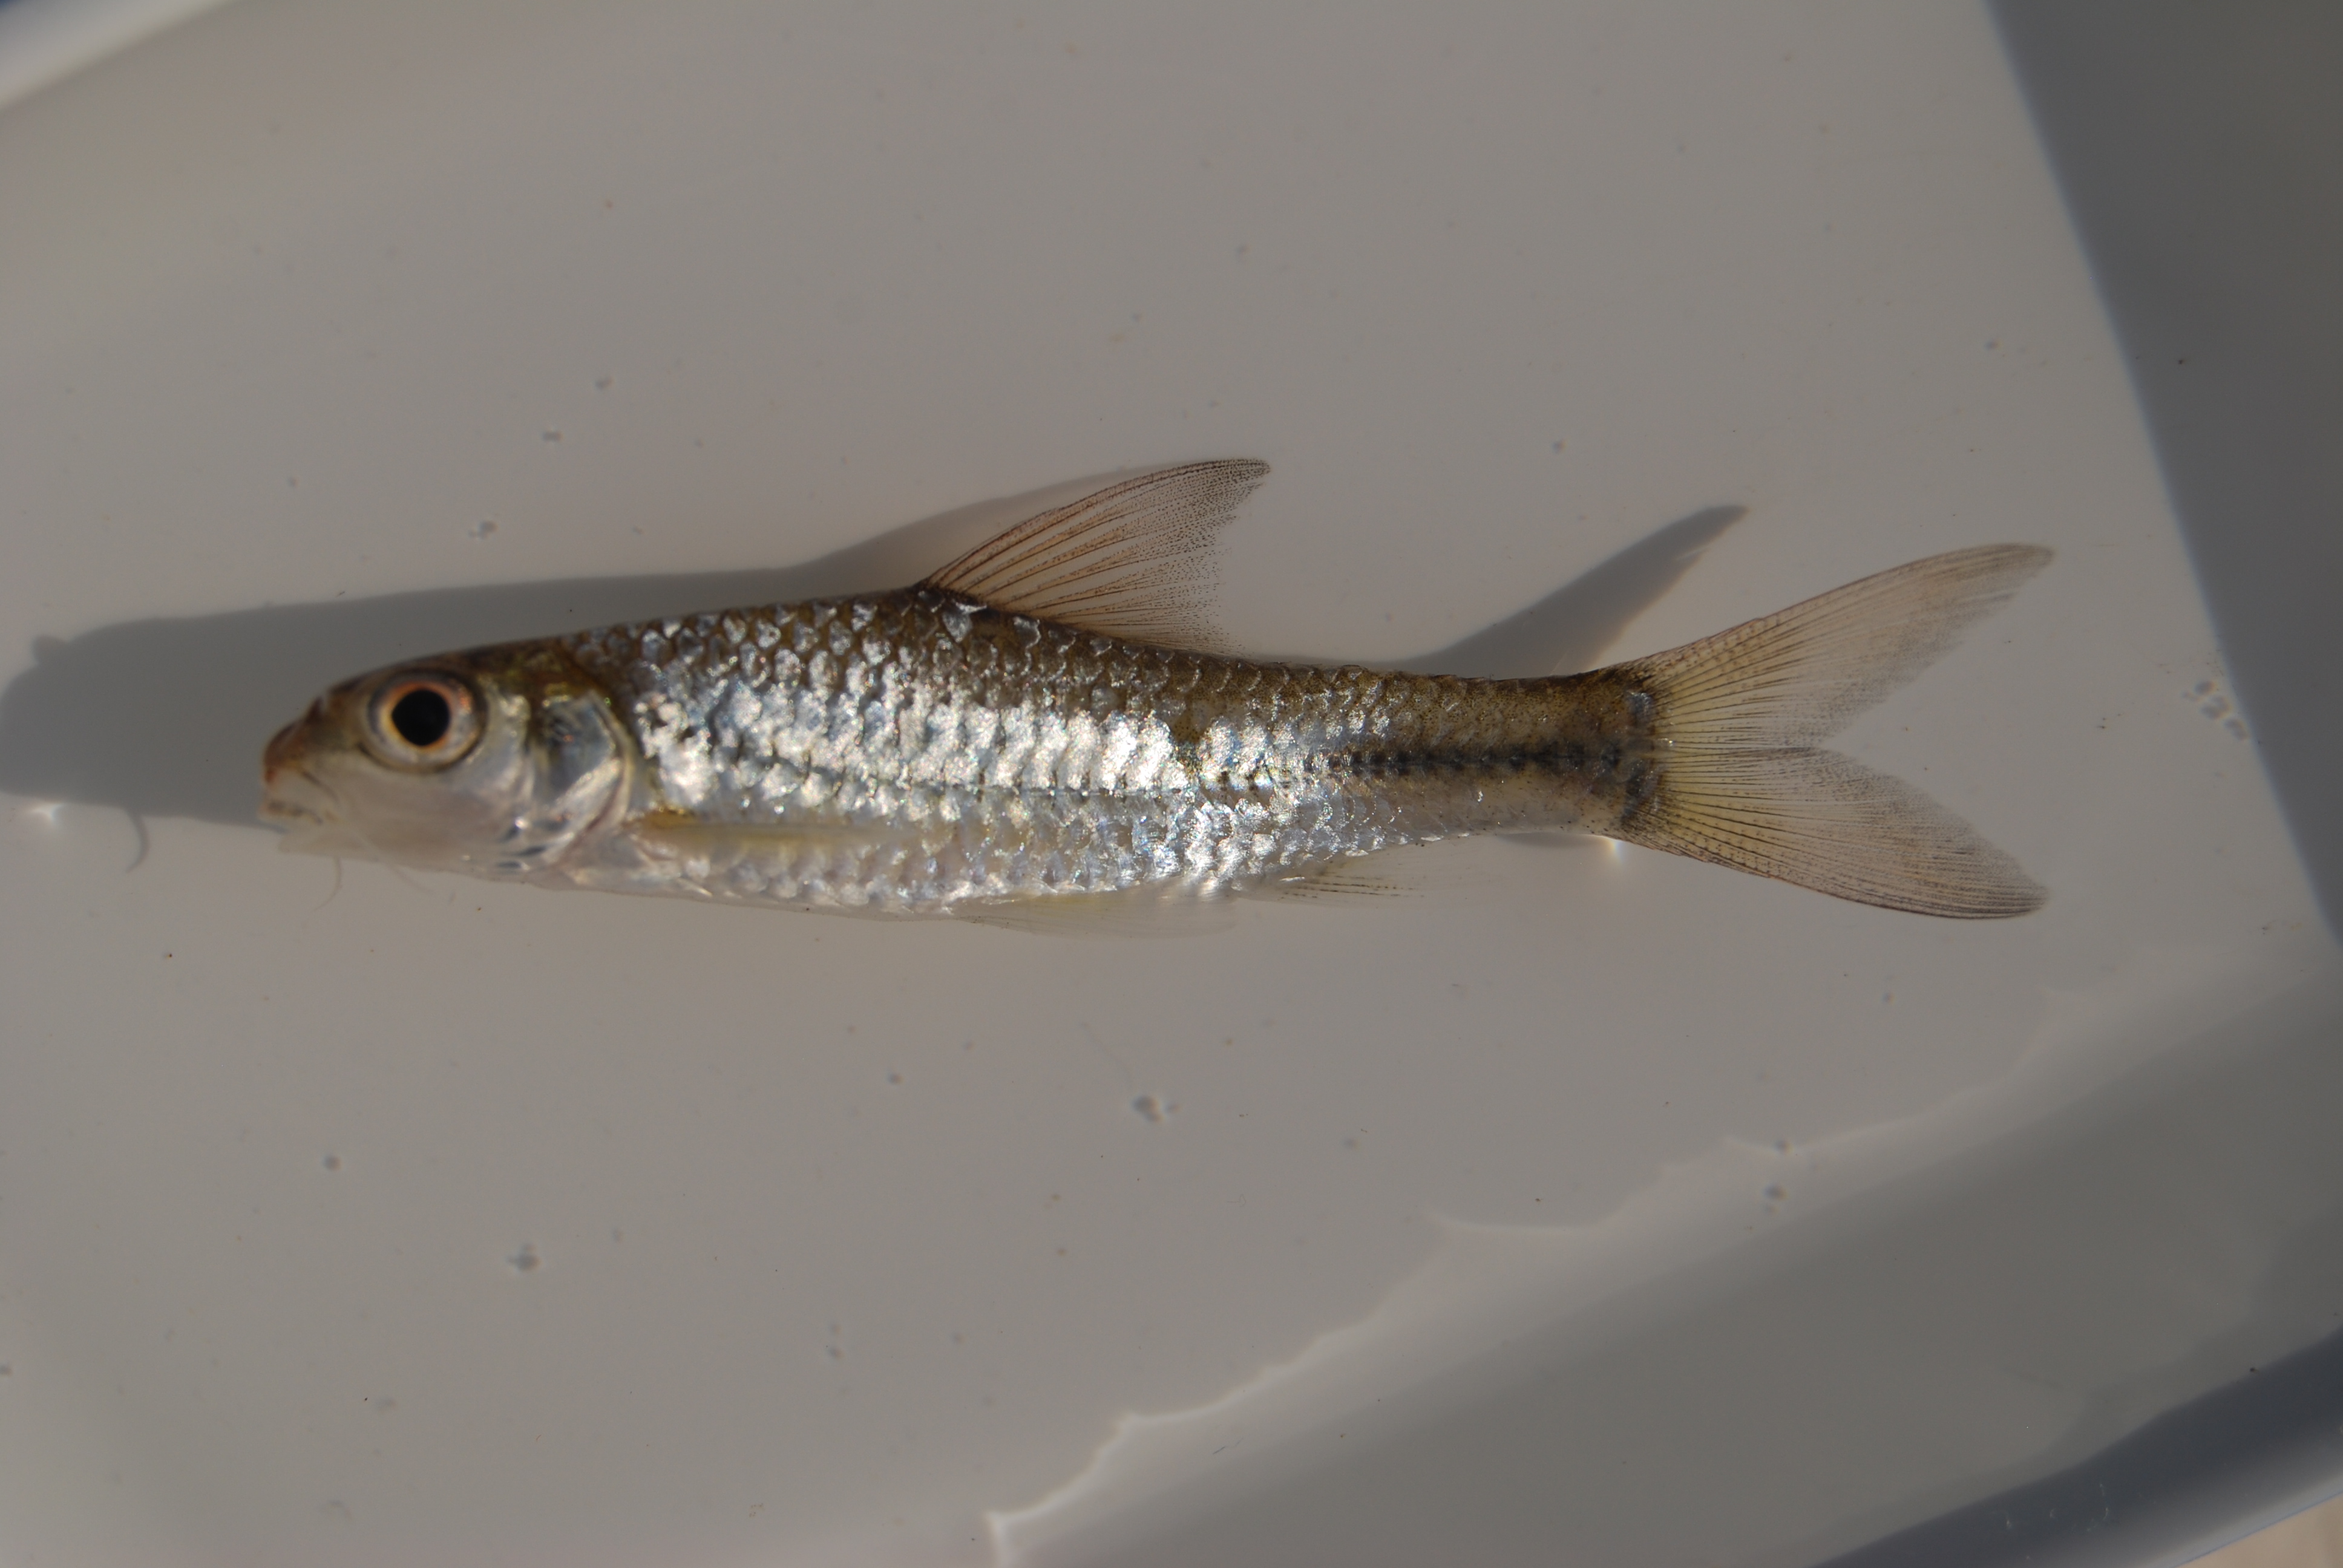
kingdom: Animalia
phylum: Chordata
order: Cypriniformes
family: Cyprinidae
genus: Enteromius
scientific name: Enteromius unitaeniatus
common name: Longbeard barb
